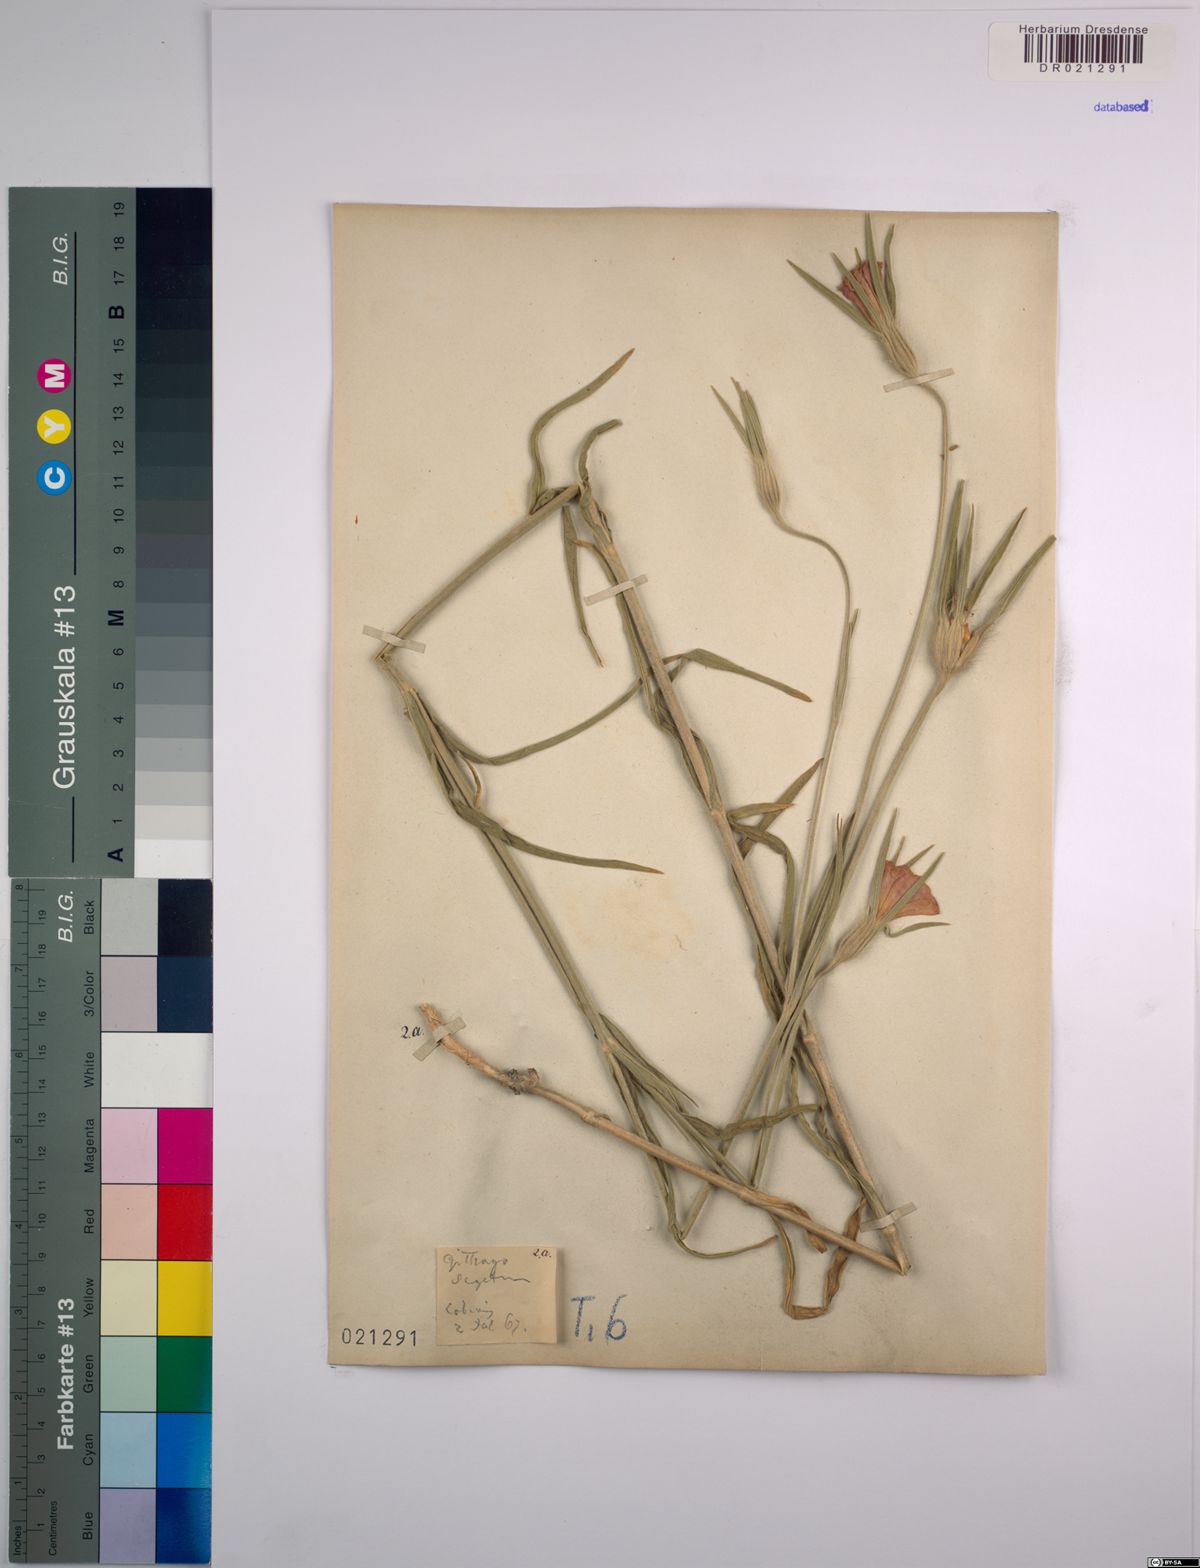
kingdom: Plantae
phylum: Tracheophyta
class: Magnoliopsida
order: Caryophyllales
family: Caryophyllaceae
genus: Agrostemma
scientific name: Agrostemma githago
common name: Common corncockle
